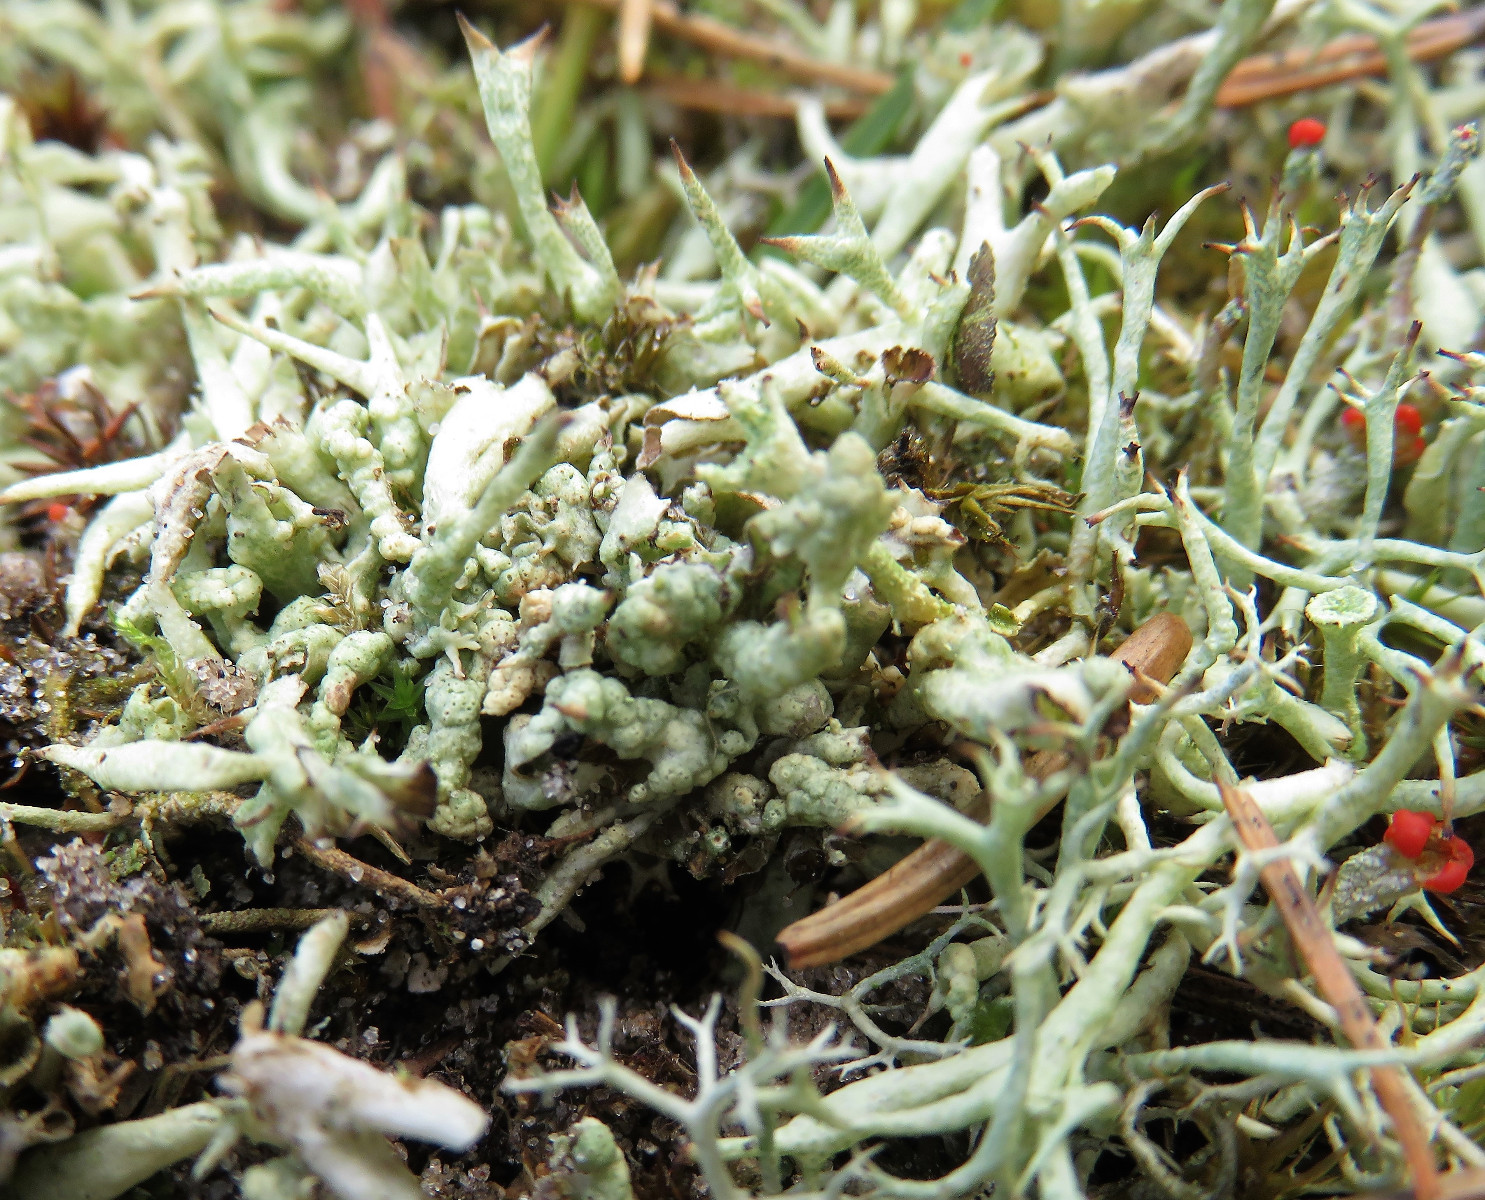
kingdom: Fungi
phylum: Ascomycota
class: Lecanoromycetes
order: Lecanorales
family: Cladoniaceae
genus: Cladonia
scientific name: Cladonia uncialis
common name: pigget bægerlav
